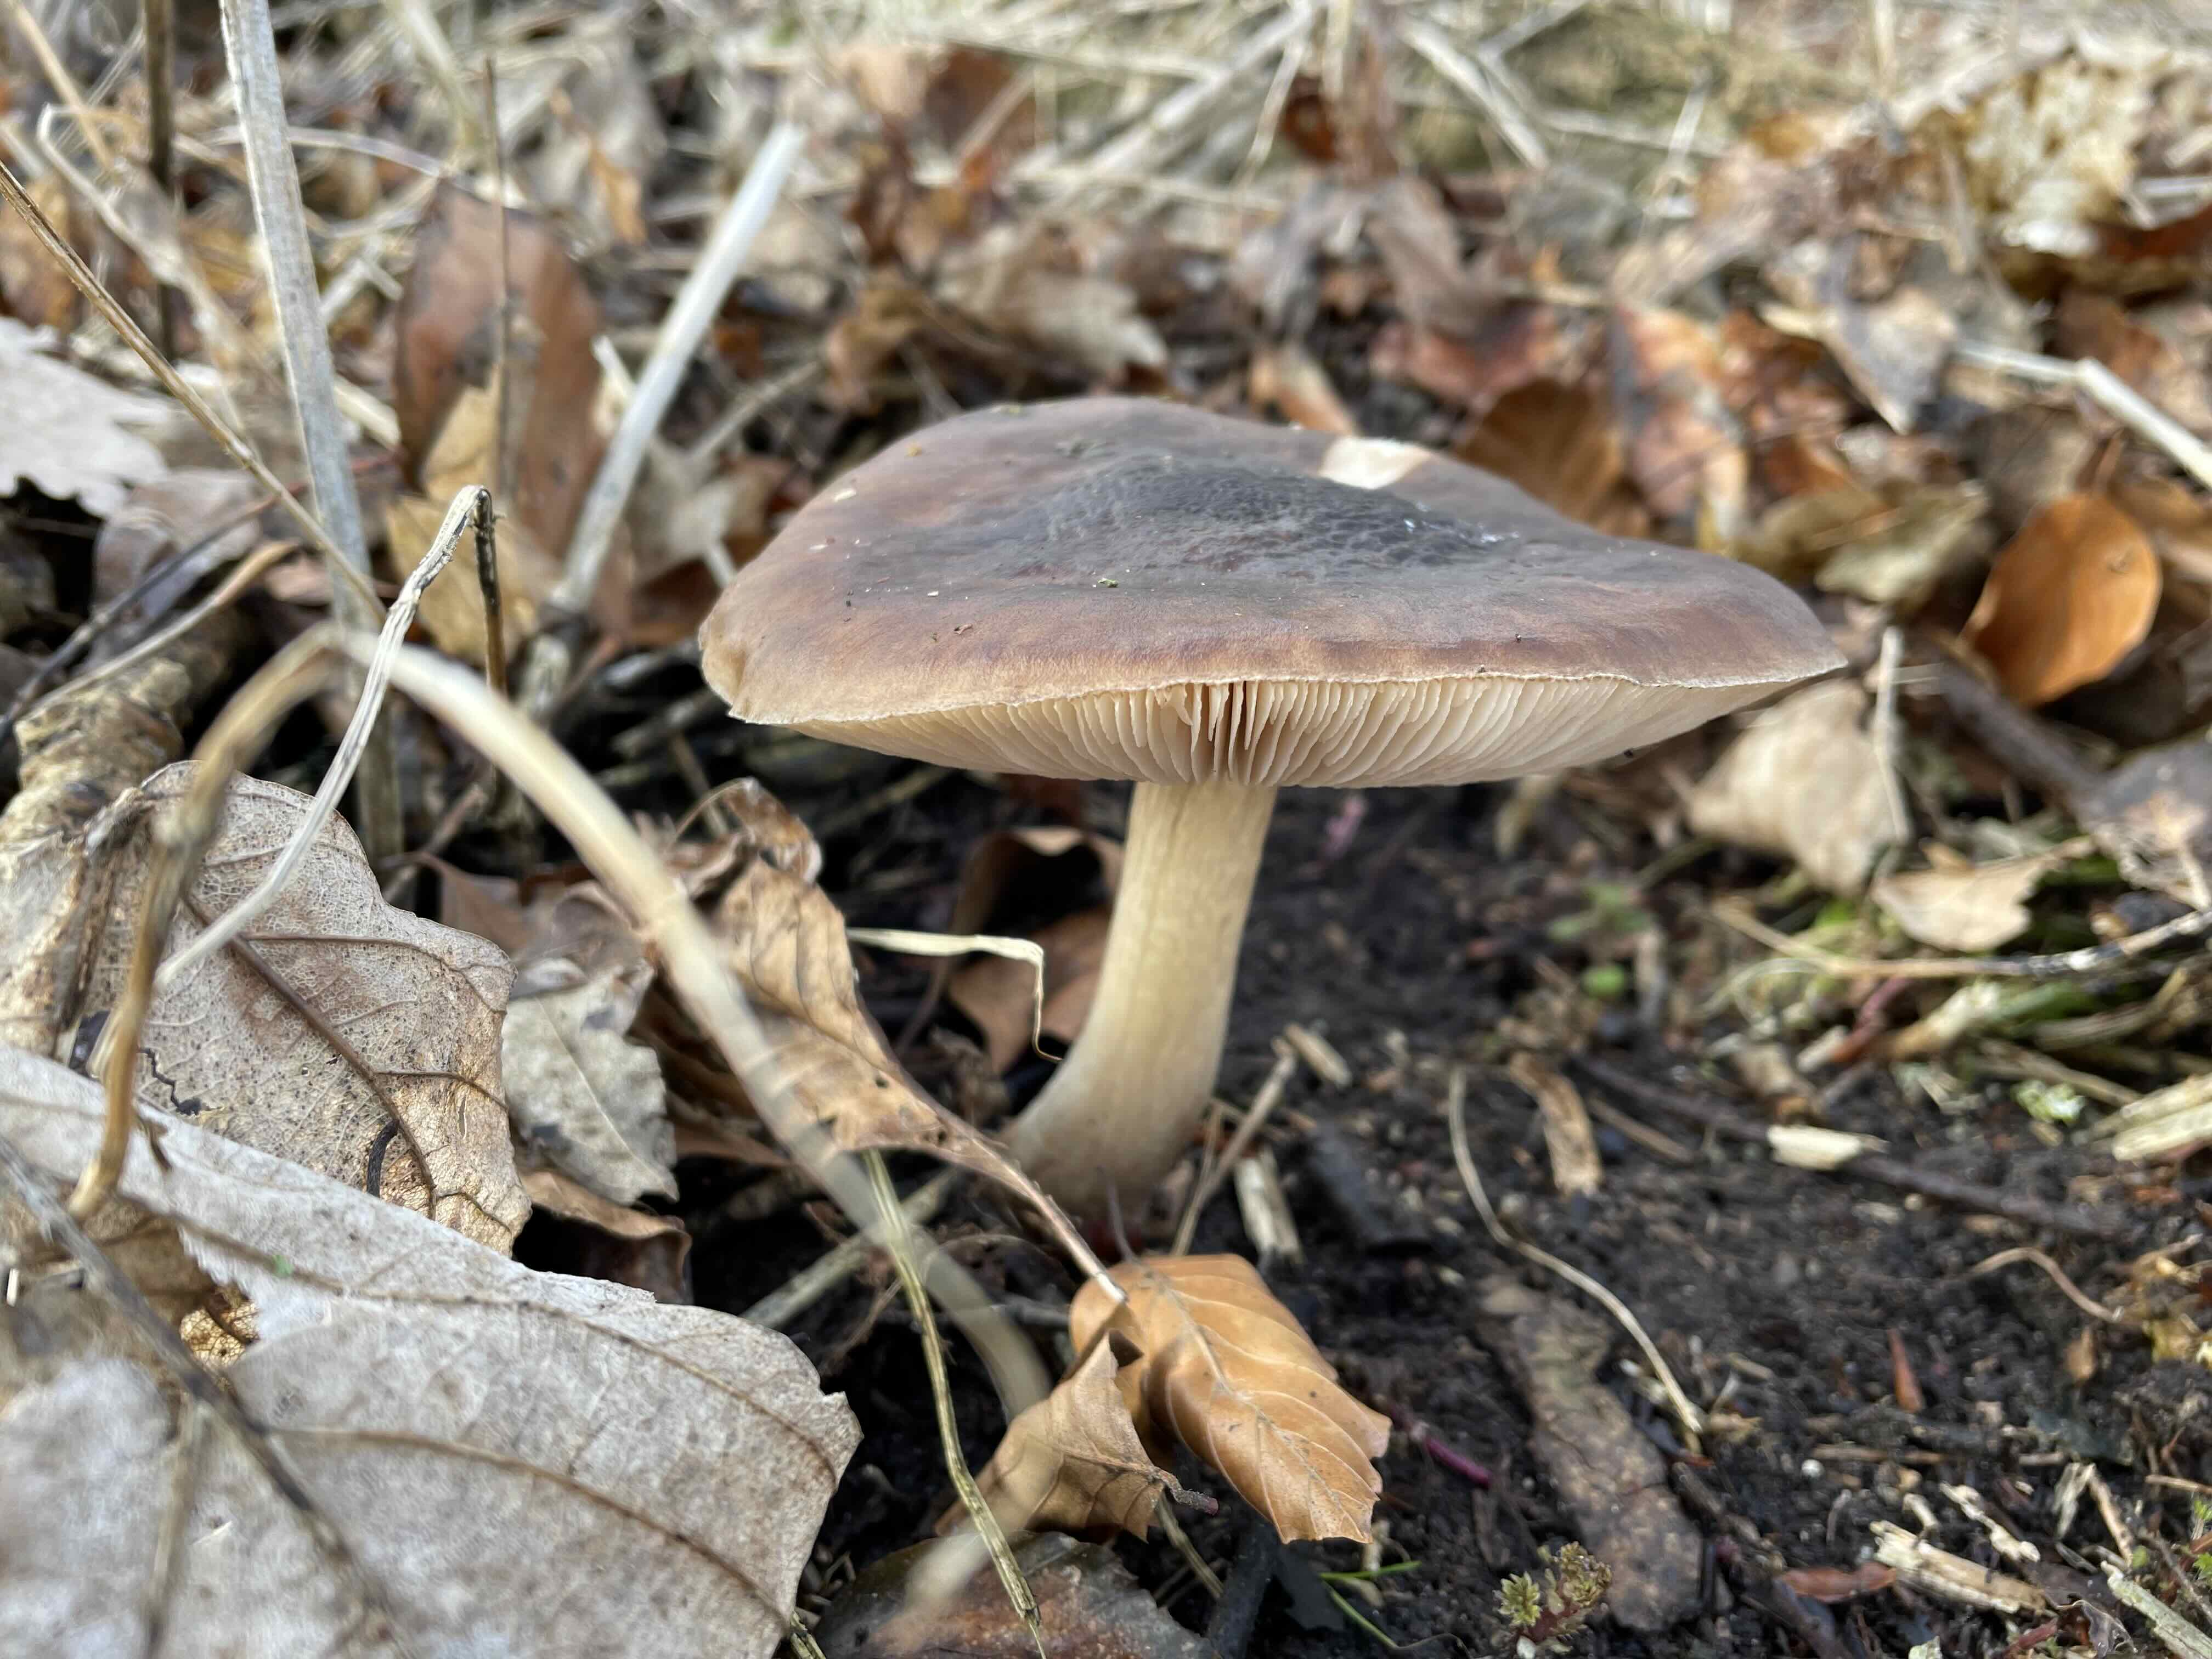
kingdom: Fungi
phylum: Basidiomycota
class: Agaricomycetes
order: Agaricales
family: Pluteaceae
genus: Pluteus
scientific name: Pluteus
